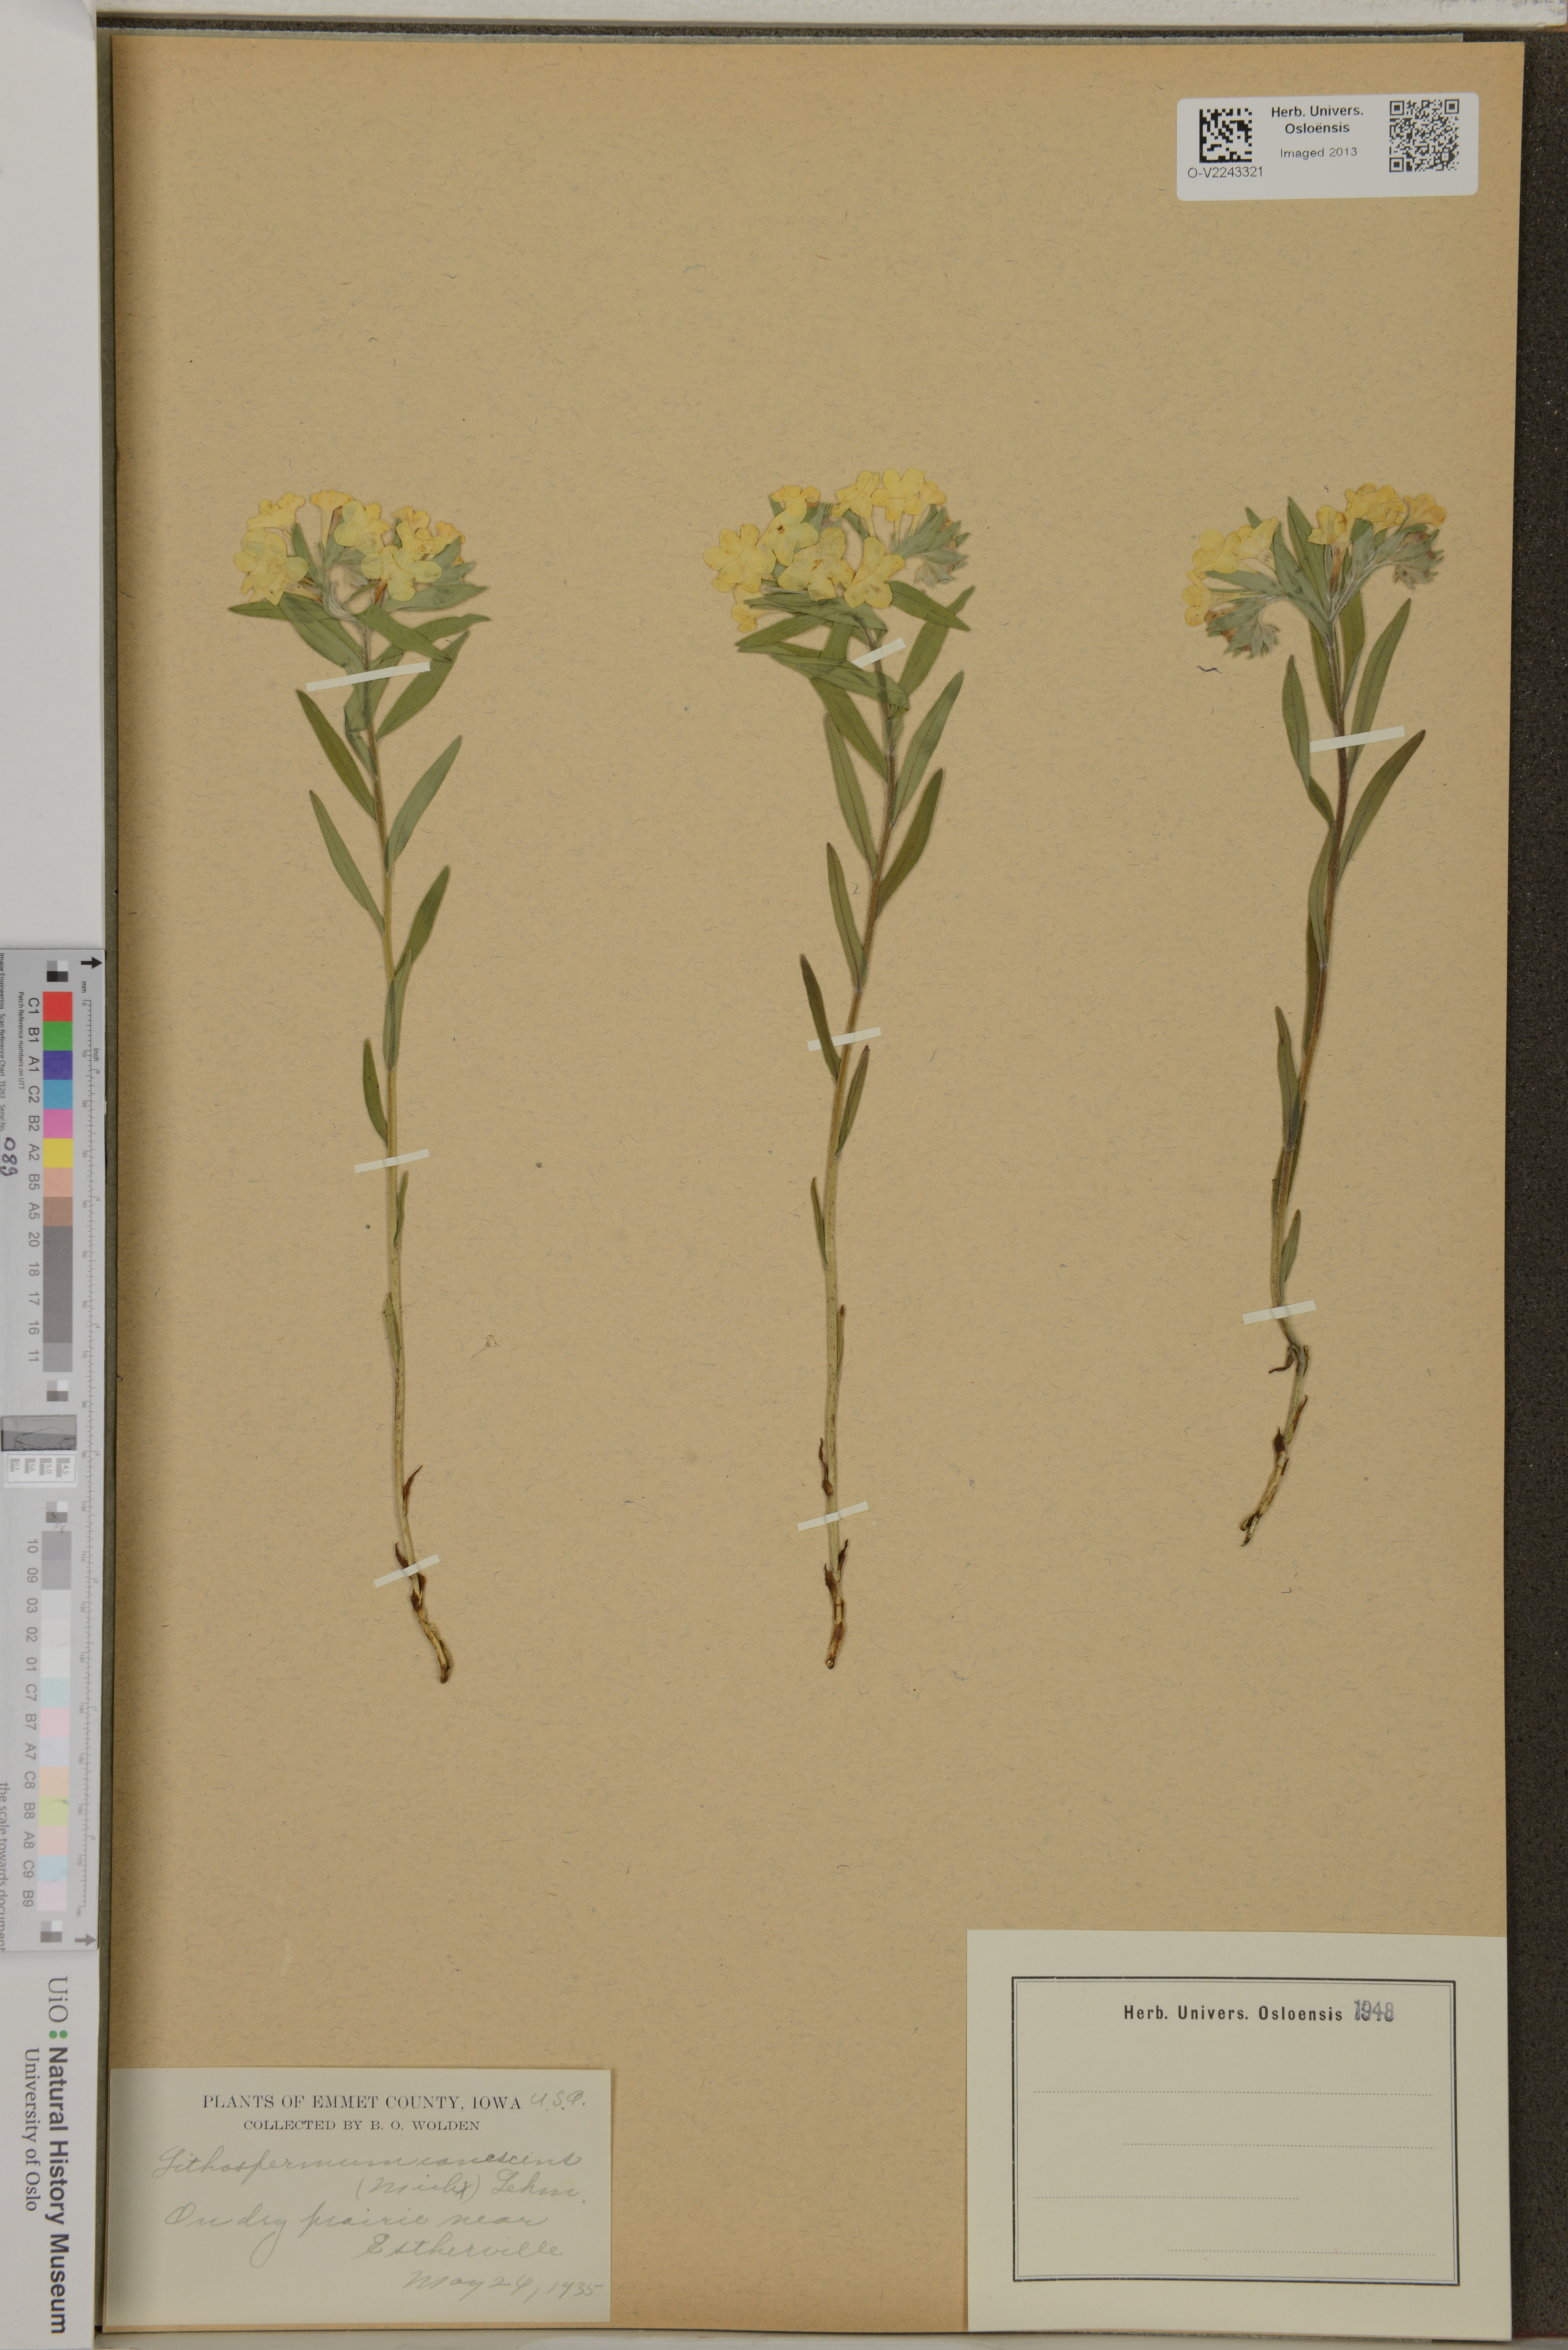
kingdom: Plantae
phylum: Tracheophyta
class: Magnoliopsida
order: Boraginales
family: Boraginaceae
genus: Lithospermum
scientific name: Lithospermum canescens
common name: Hoary puccoon
